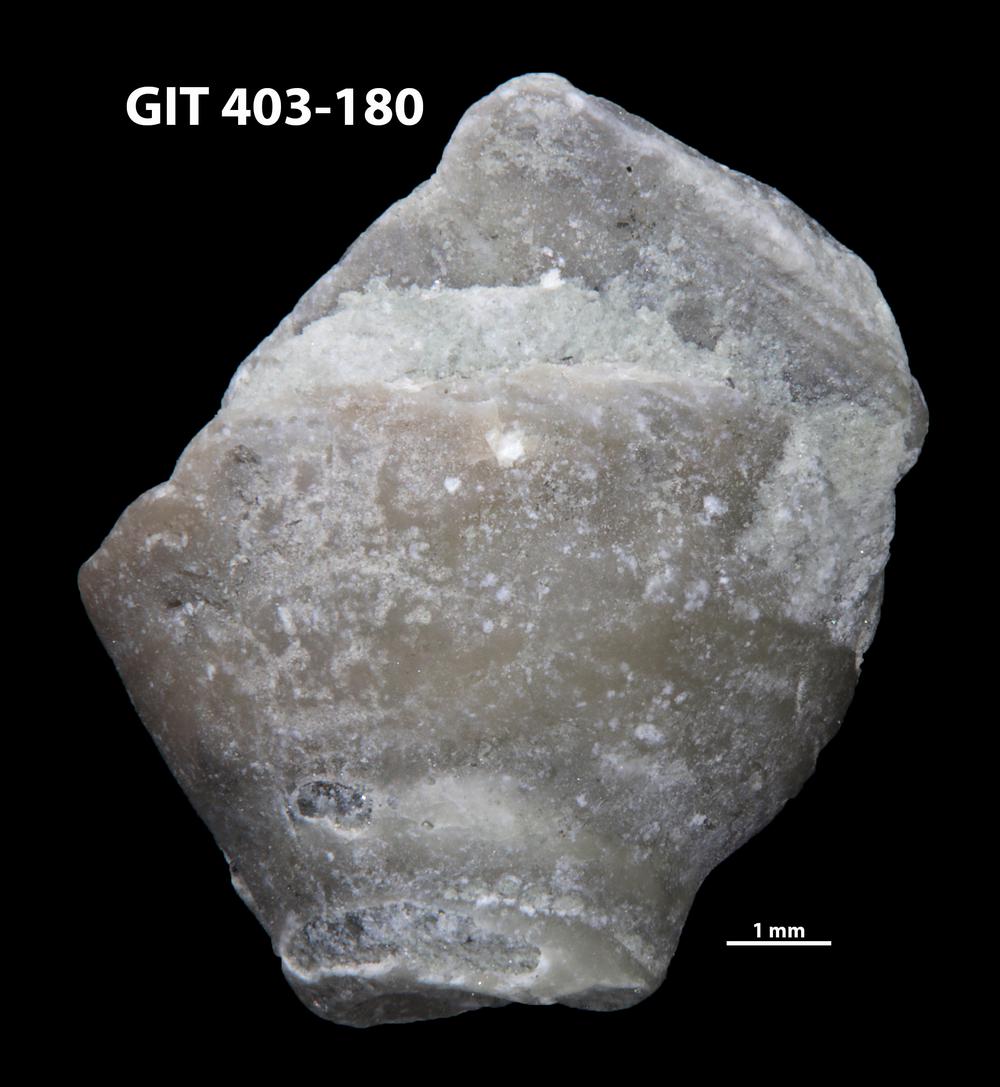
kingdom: Animalia
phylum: Mollusca
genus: Anticalyptraea
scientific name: Anticalyptraea westergaardi
